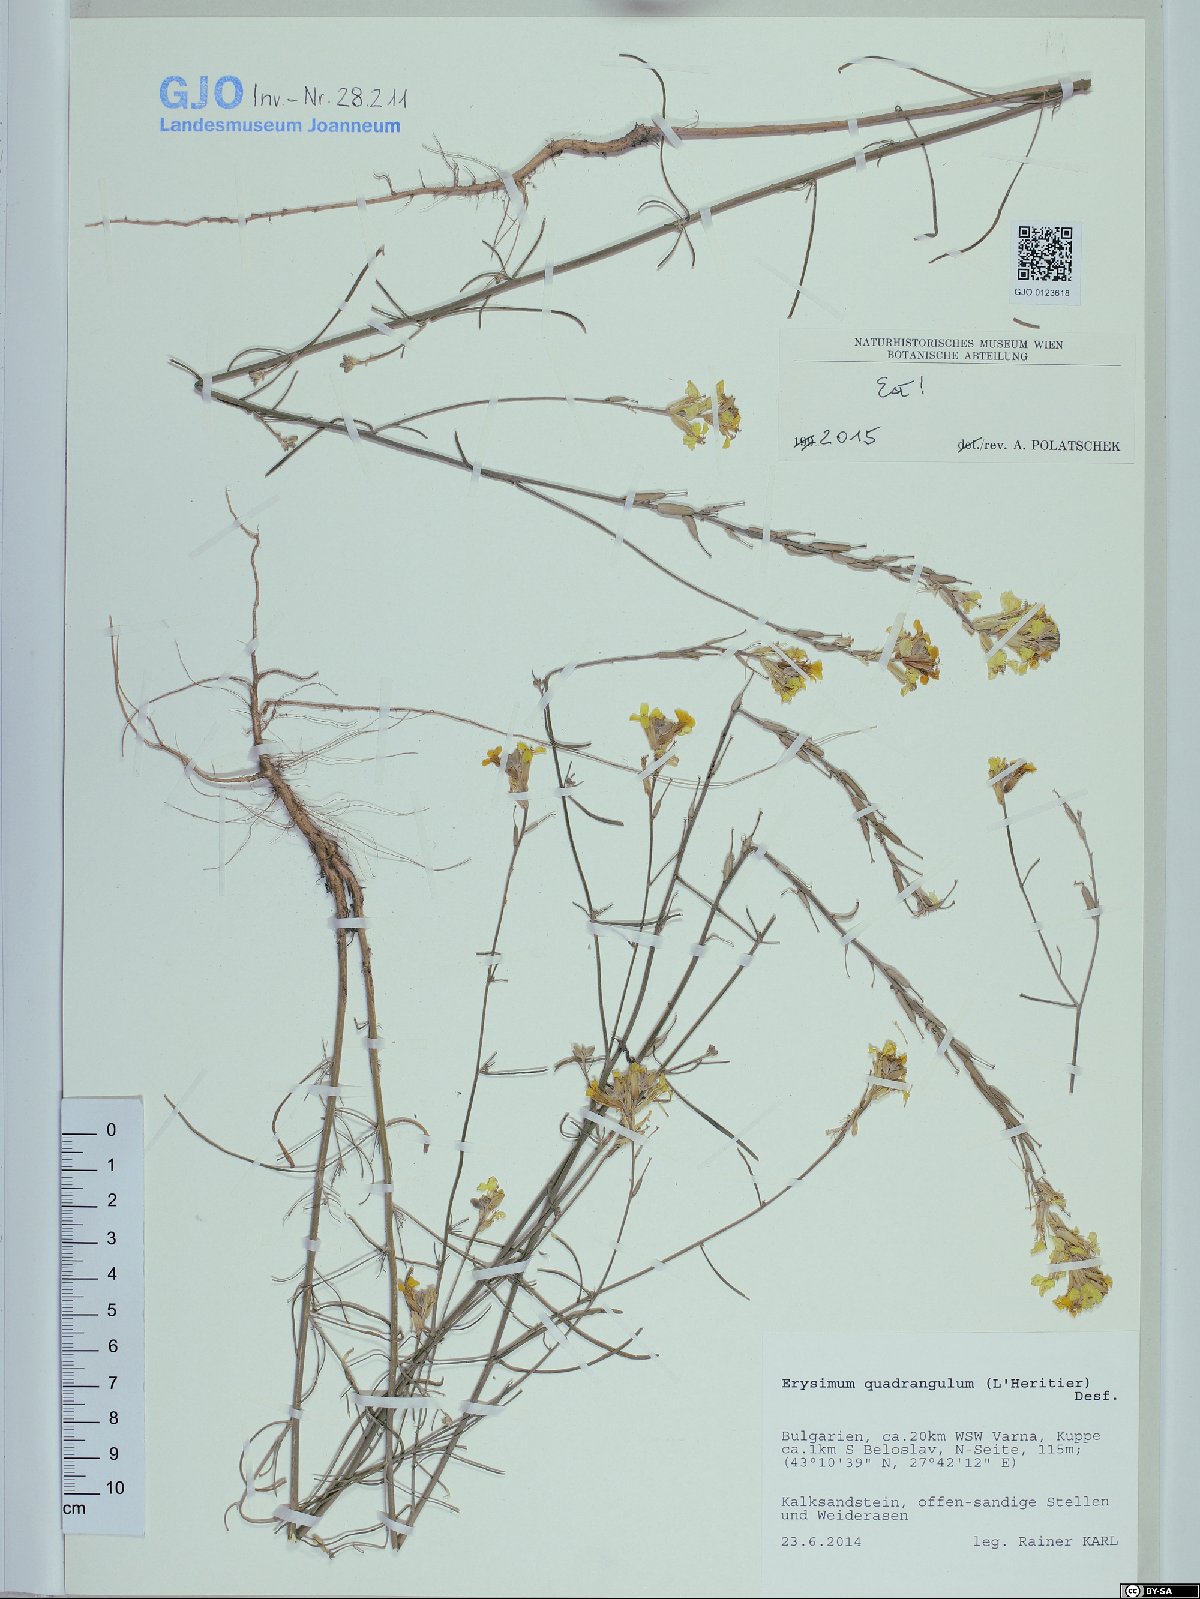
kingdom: Plantae
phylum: Tracheophyta
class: Magnoliopsida
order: Brassicales
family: Brassicaceae
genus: Erysimum
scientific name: Erysimum quadrangulum
